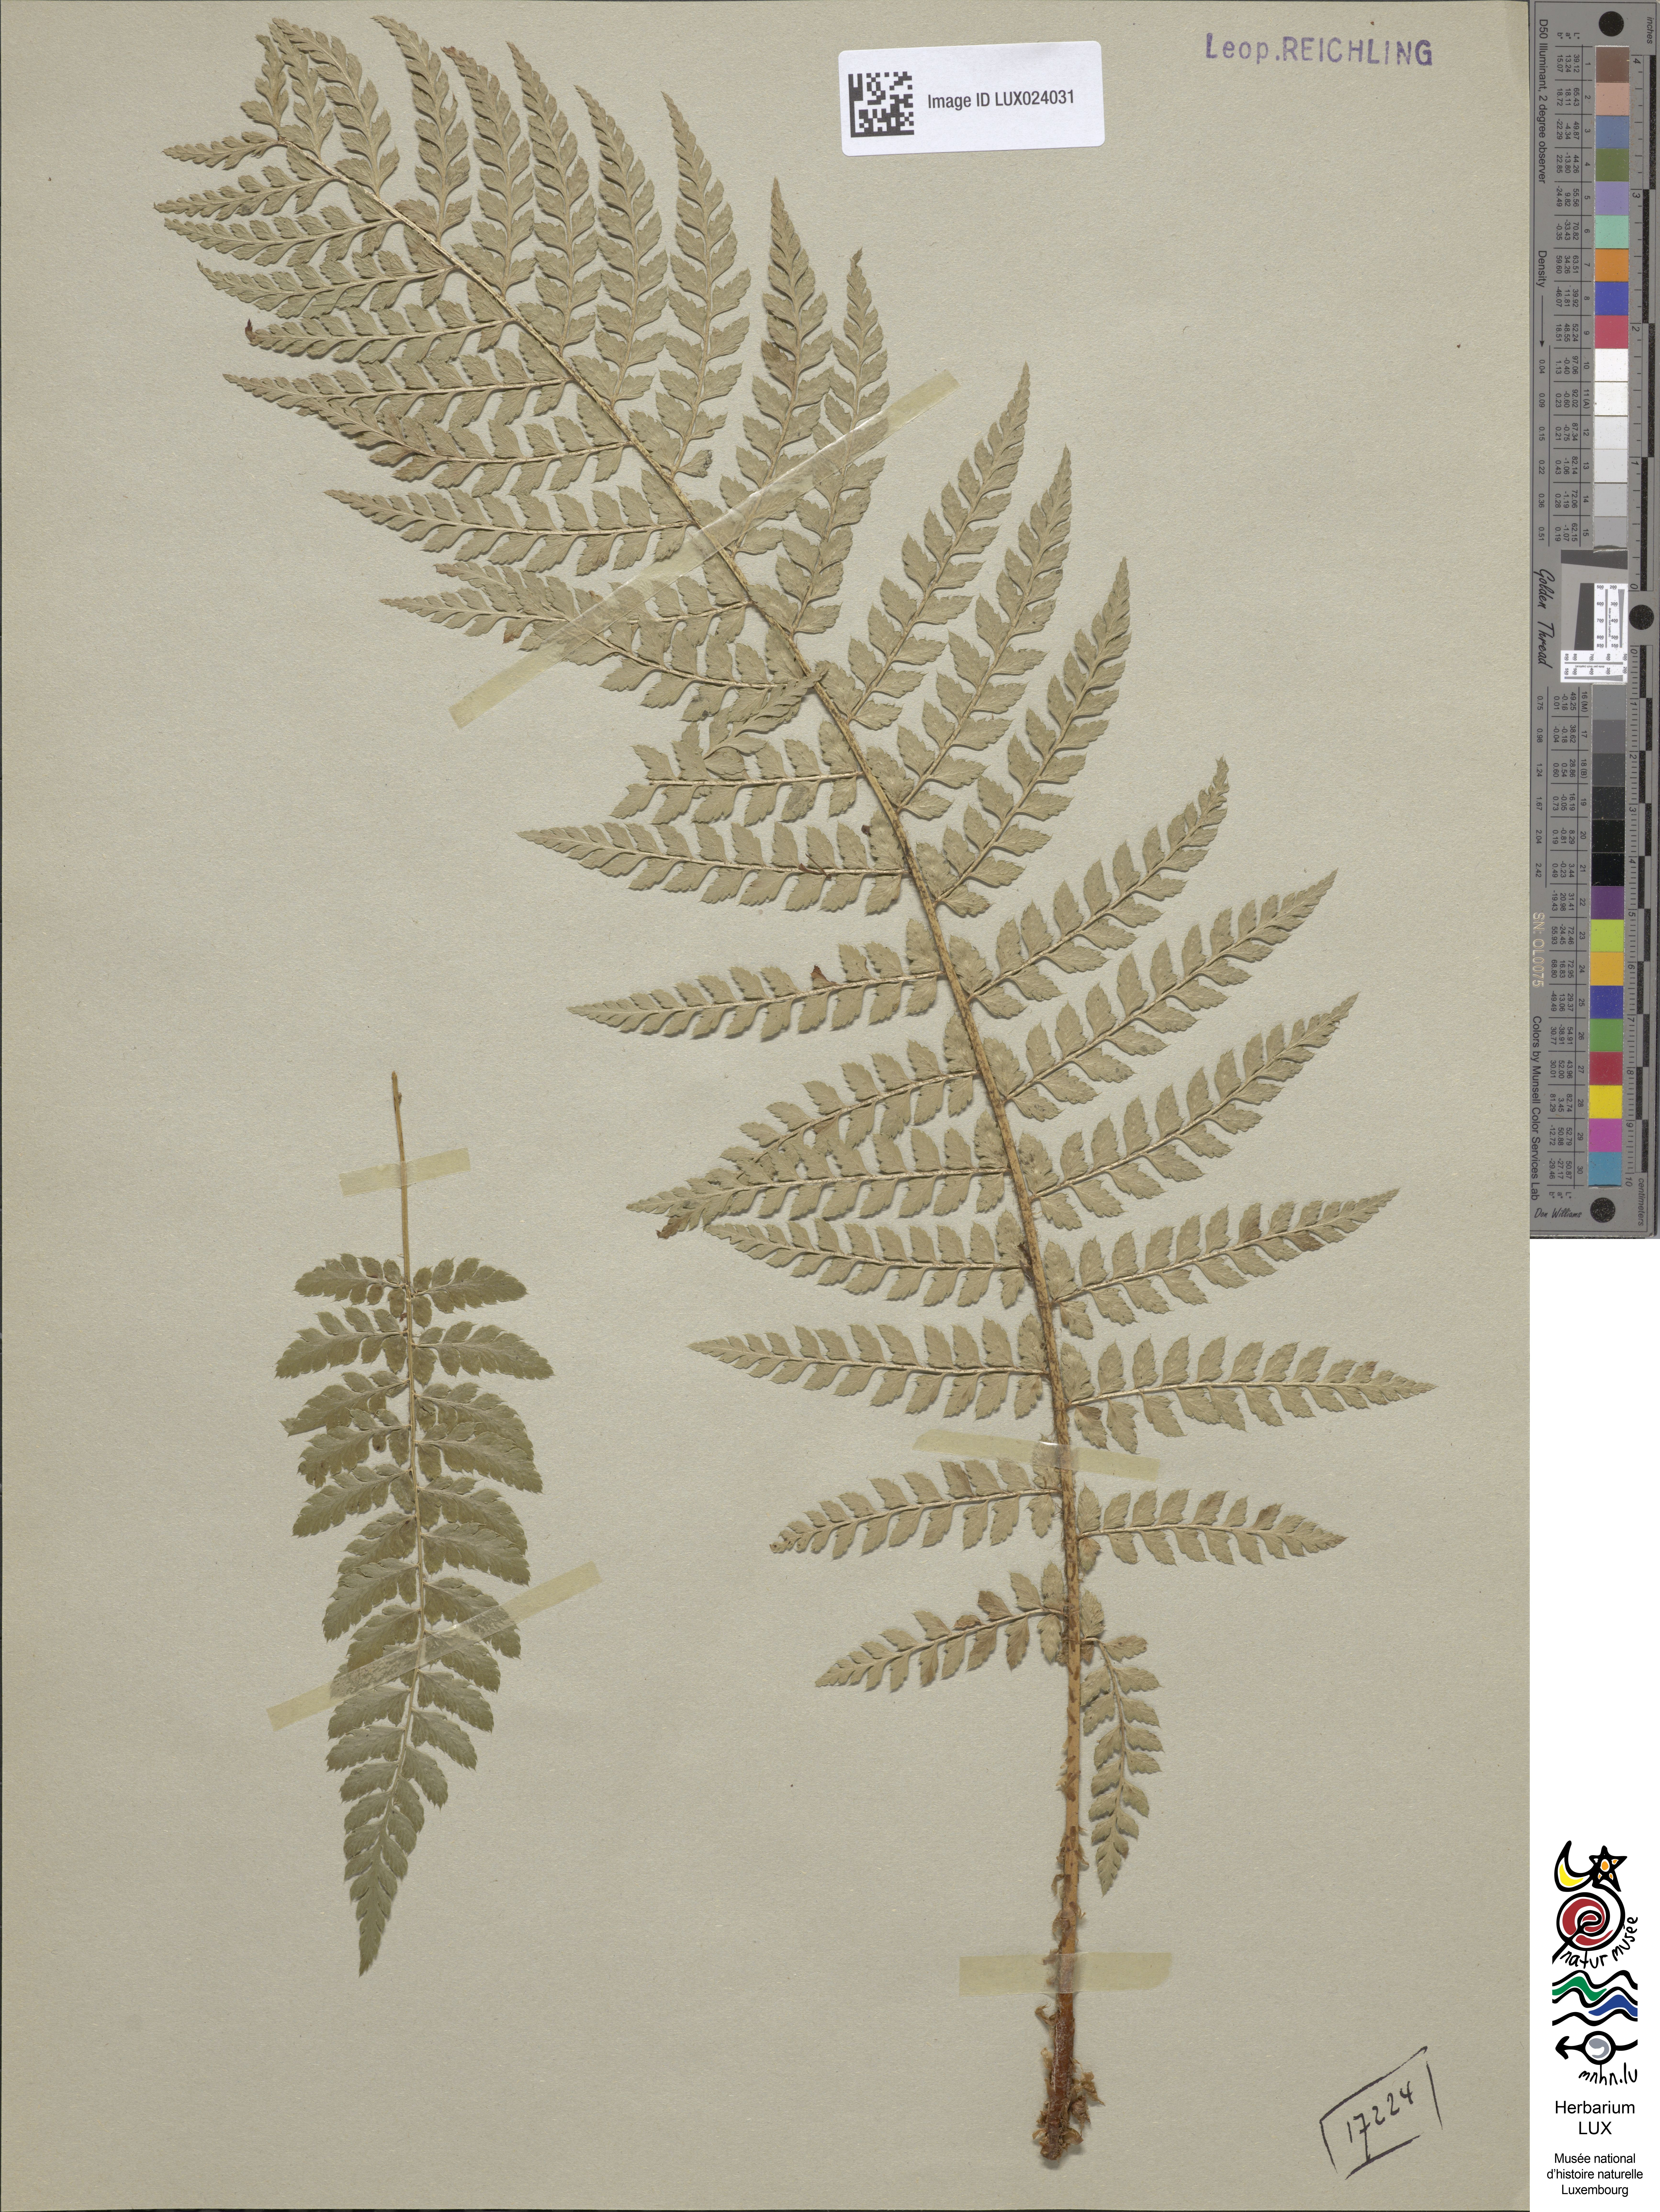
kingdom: Plantae
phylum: Tracheophyta
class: Polypodiopsida
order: Polypodiales
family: Dryopteridaceae
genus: Polystichum
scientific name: Polystichum
